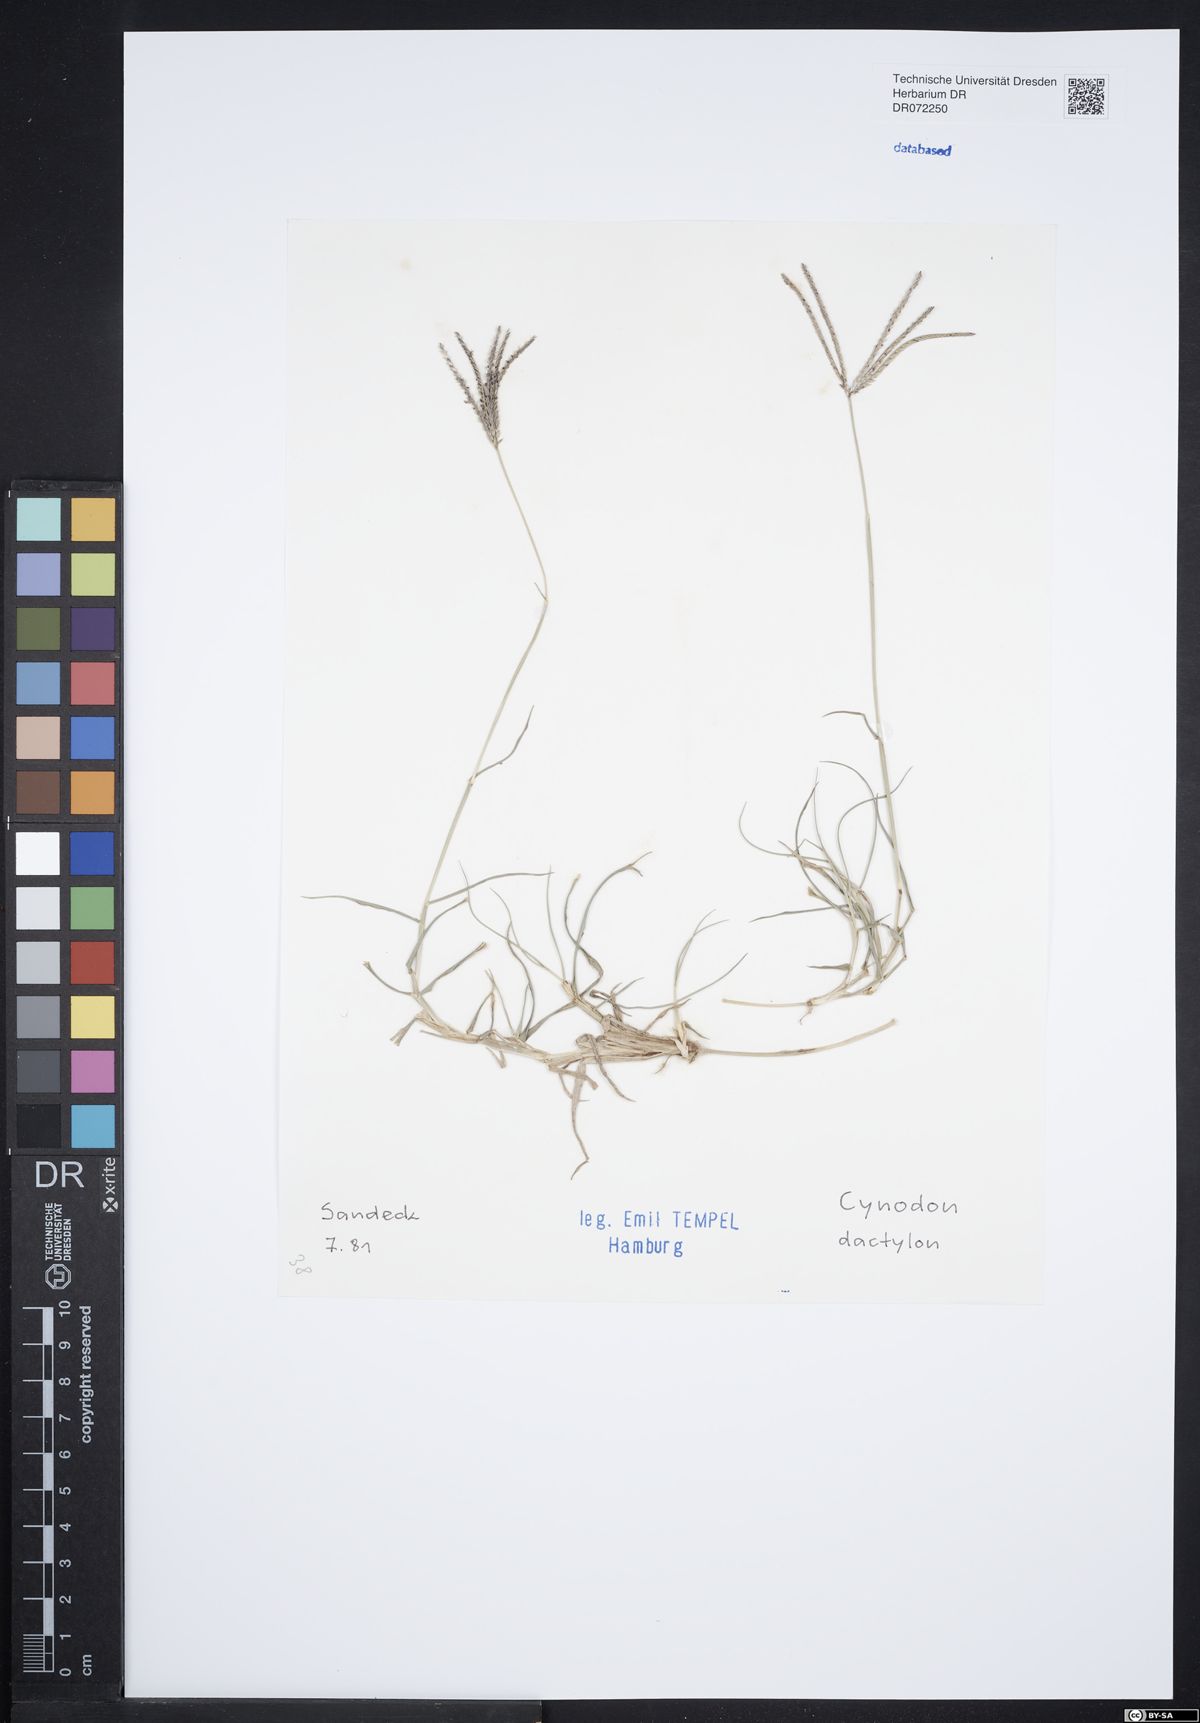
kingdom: Plantae
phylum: Tracheophyta
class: Liliopsida
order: Poales
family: Poaceae
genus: Cynodon
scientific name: Cynodon dactylon
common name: Bermuda grass
